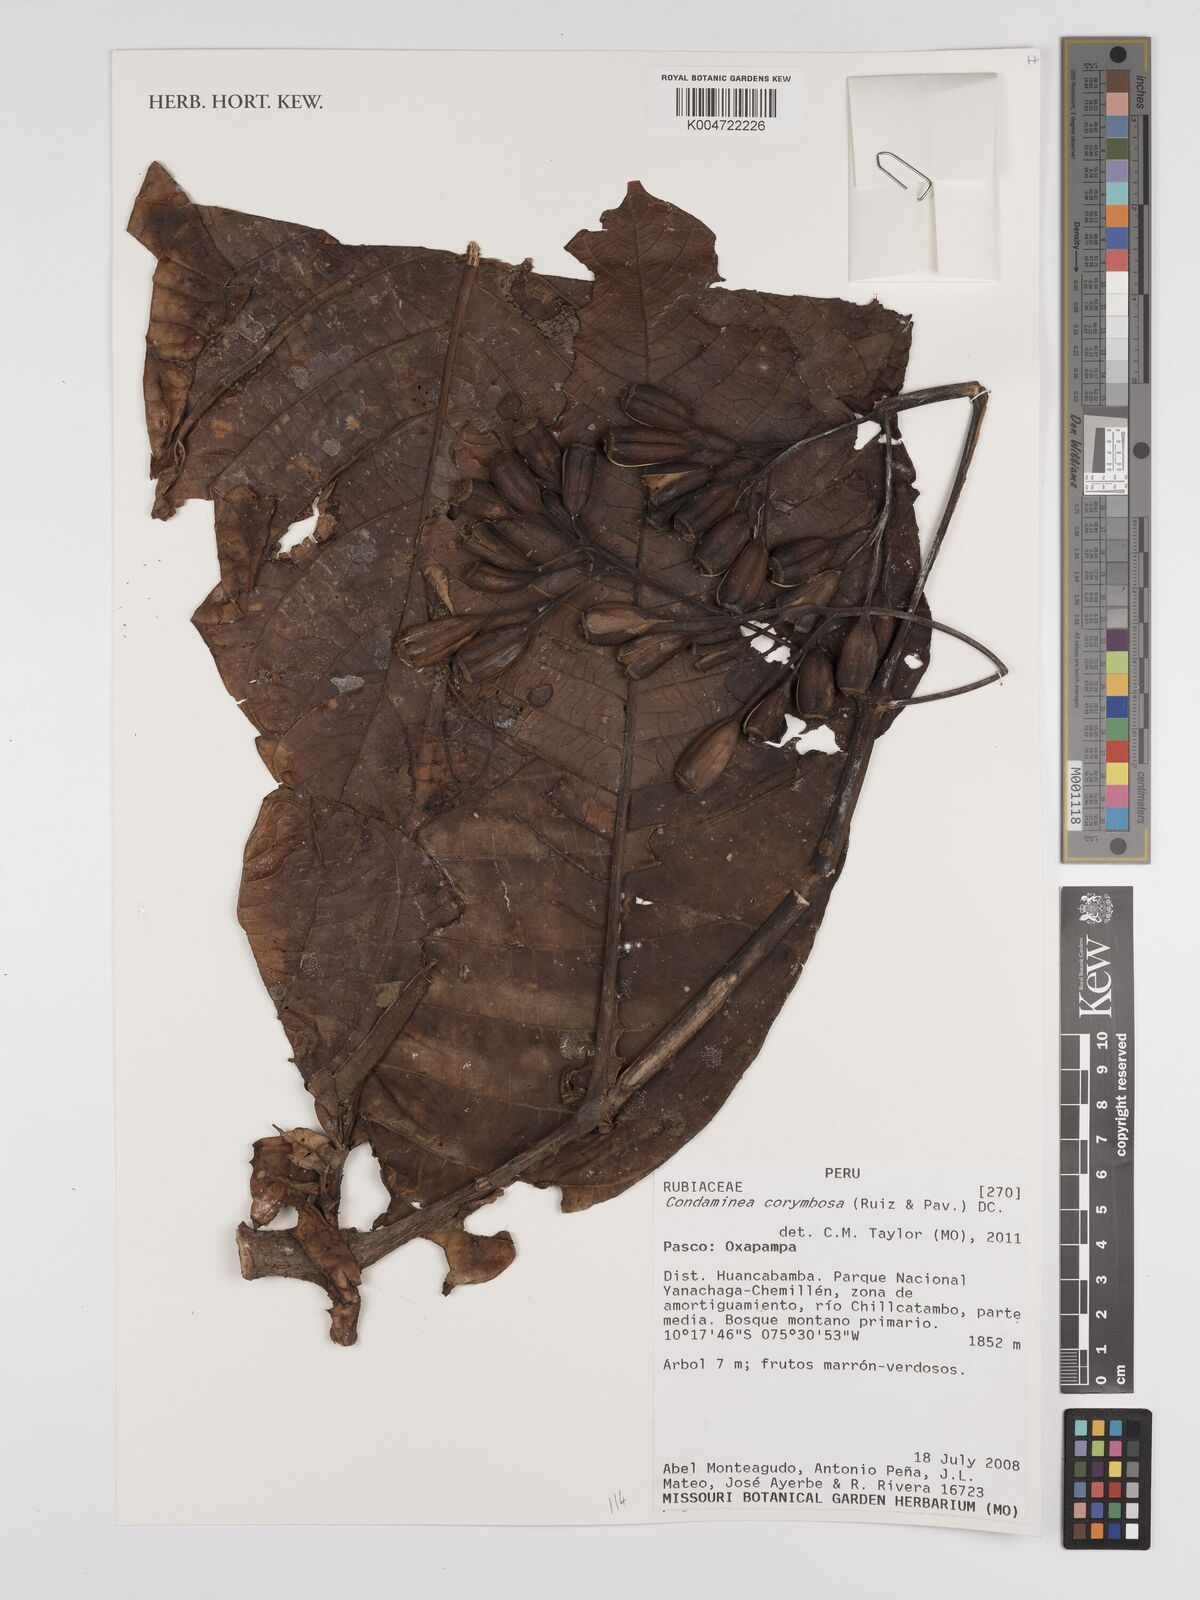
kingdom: Plantae
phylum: Tracheophyta
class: Magnoliopsida
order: Gentianales
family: Rubiaceae
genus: Condaminea
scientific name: Condaminea corymbosa
